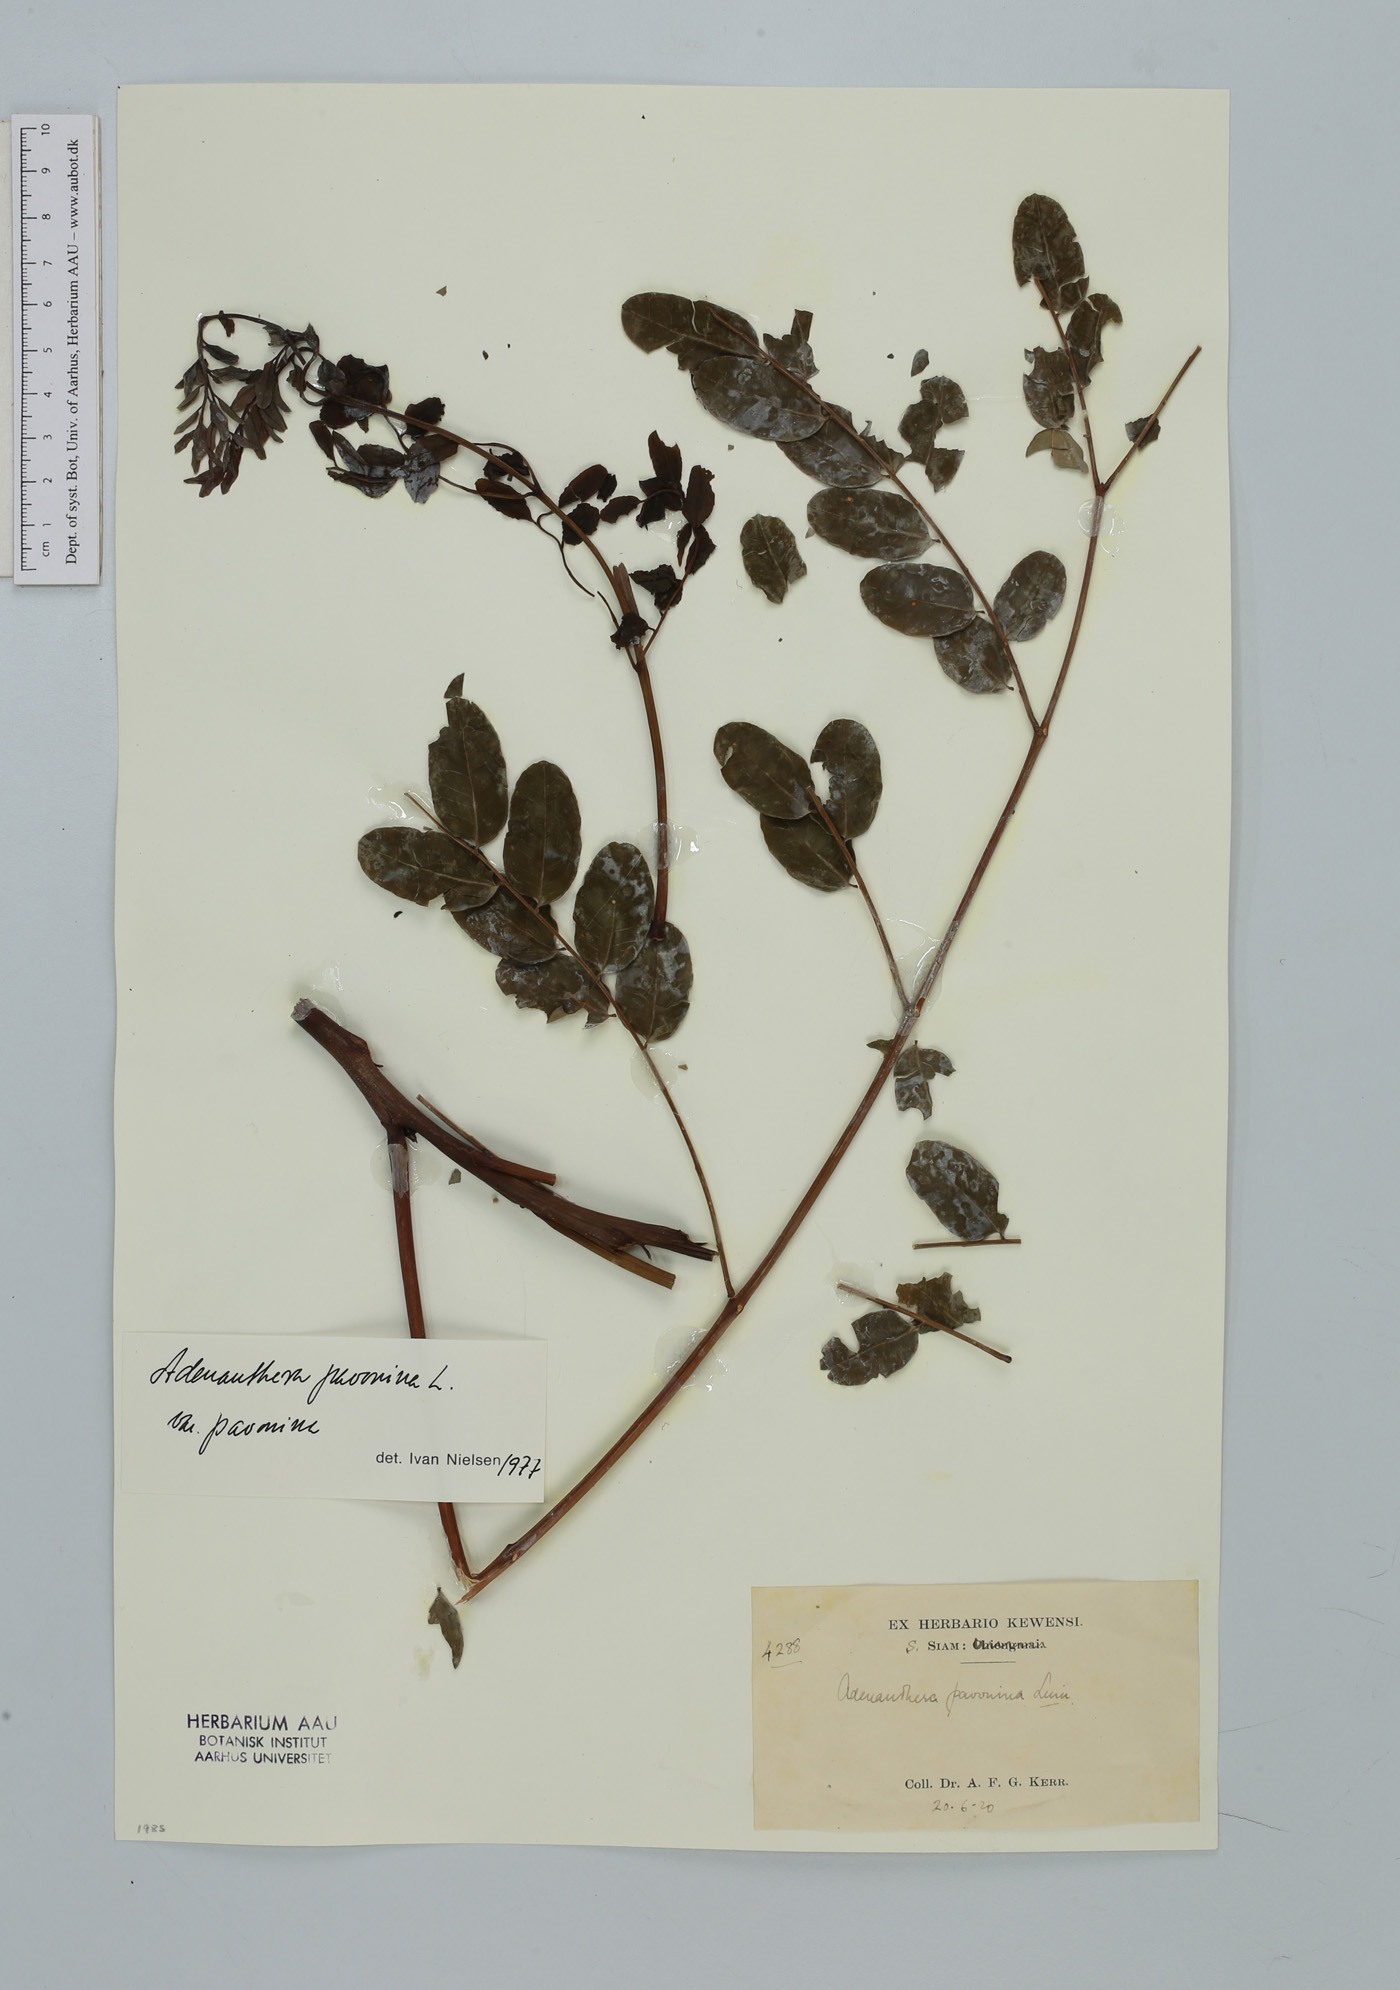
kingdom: Plantae
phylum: Tracheophyta
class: Magnoliopsida
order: Fabales
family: Fabaceae
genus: Adenanthera
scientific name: Adenanthera pavonina
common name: Red beadtree
